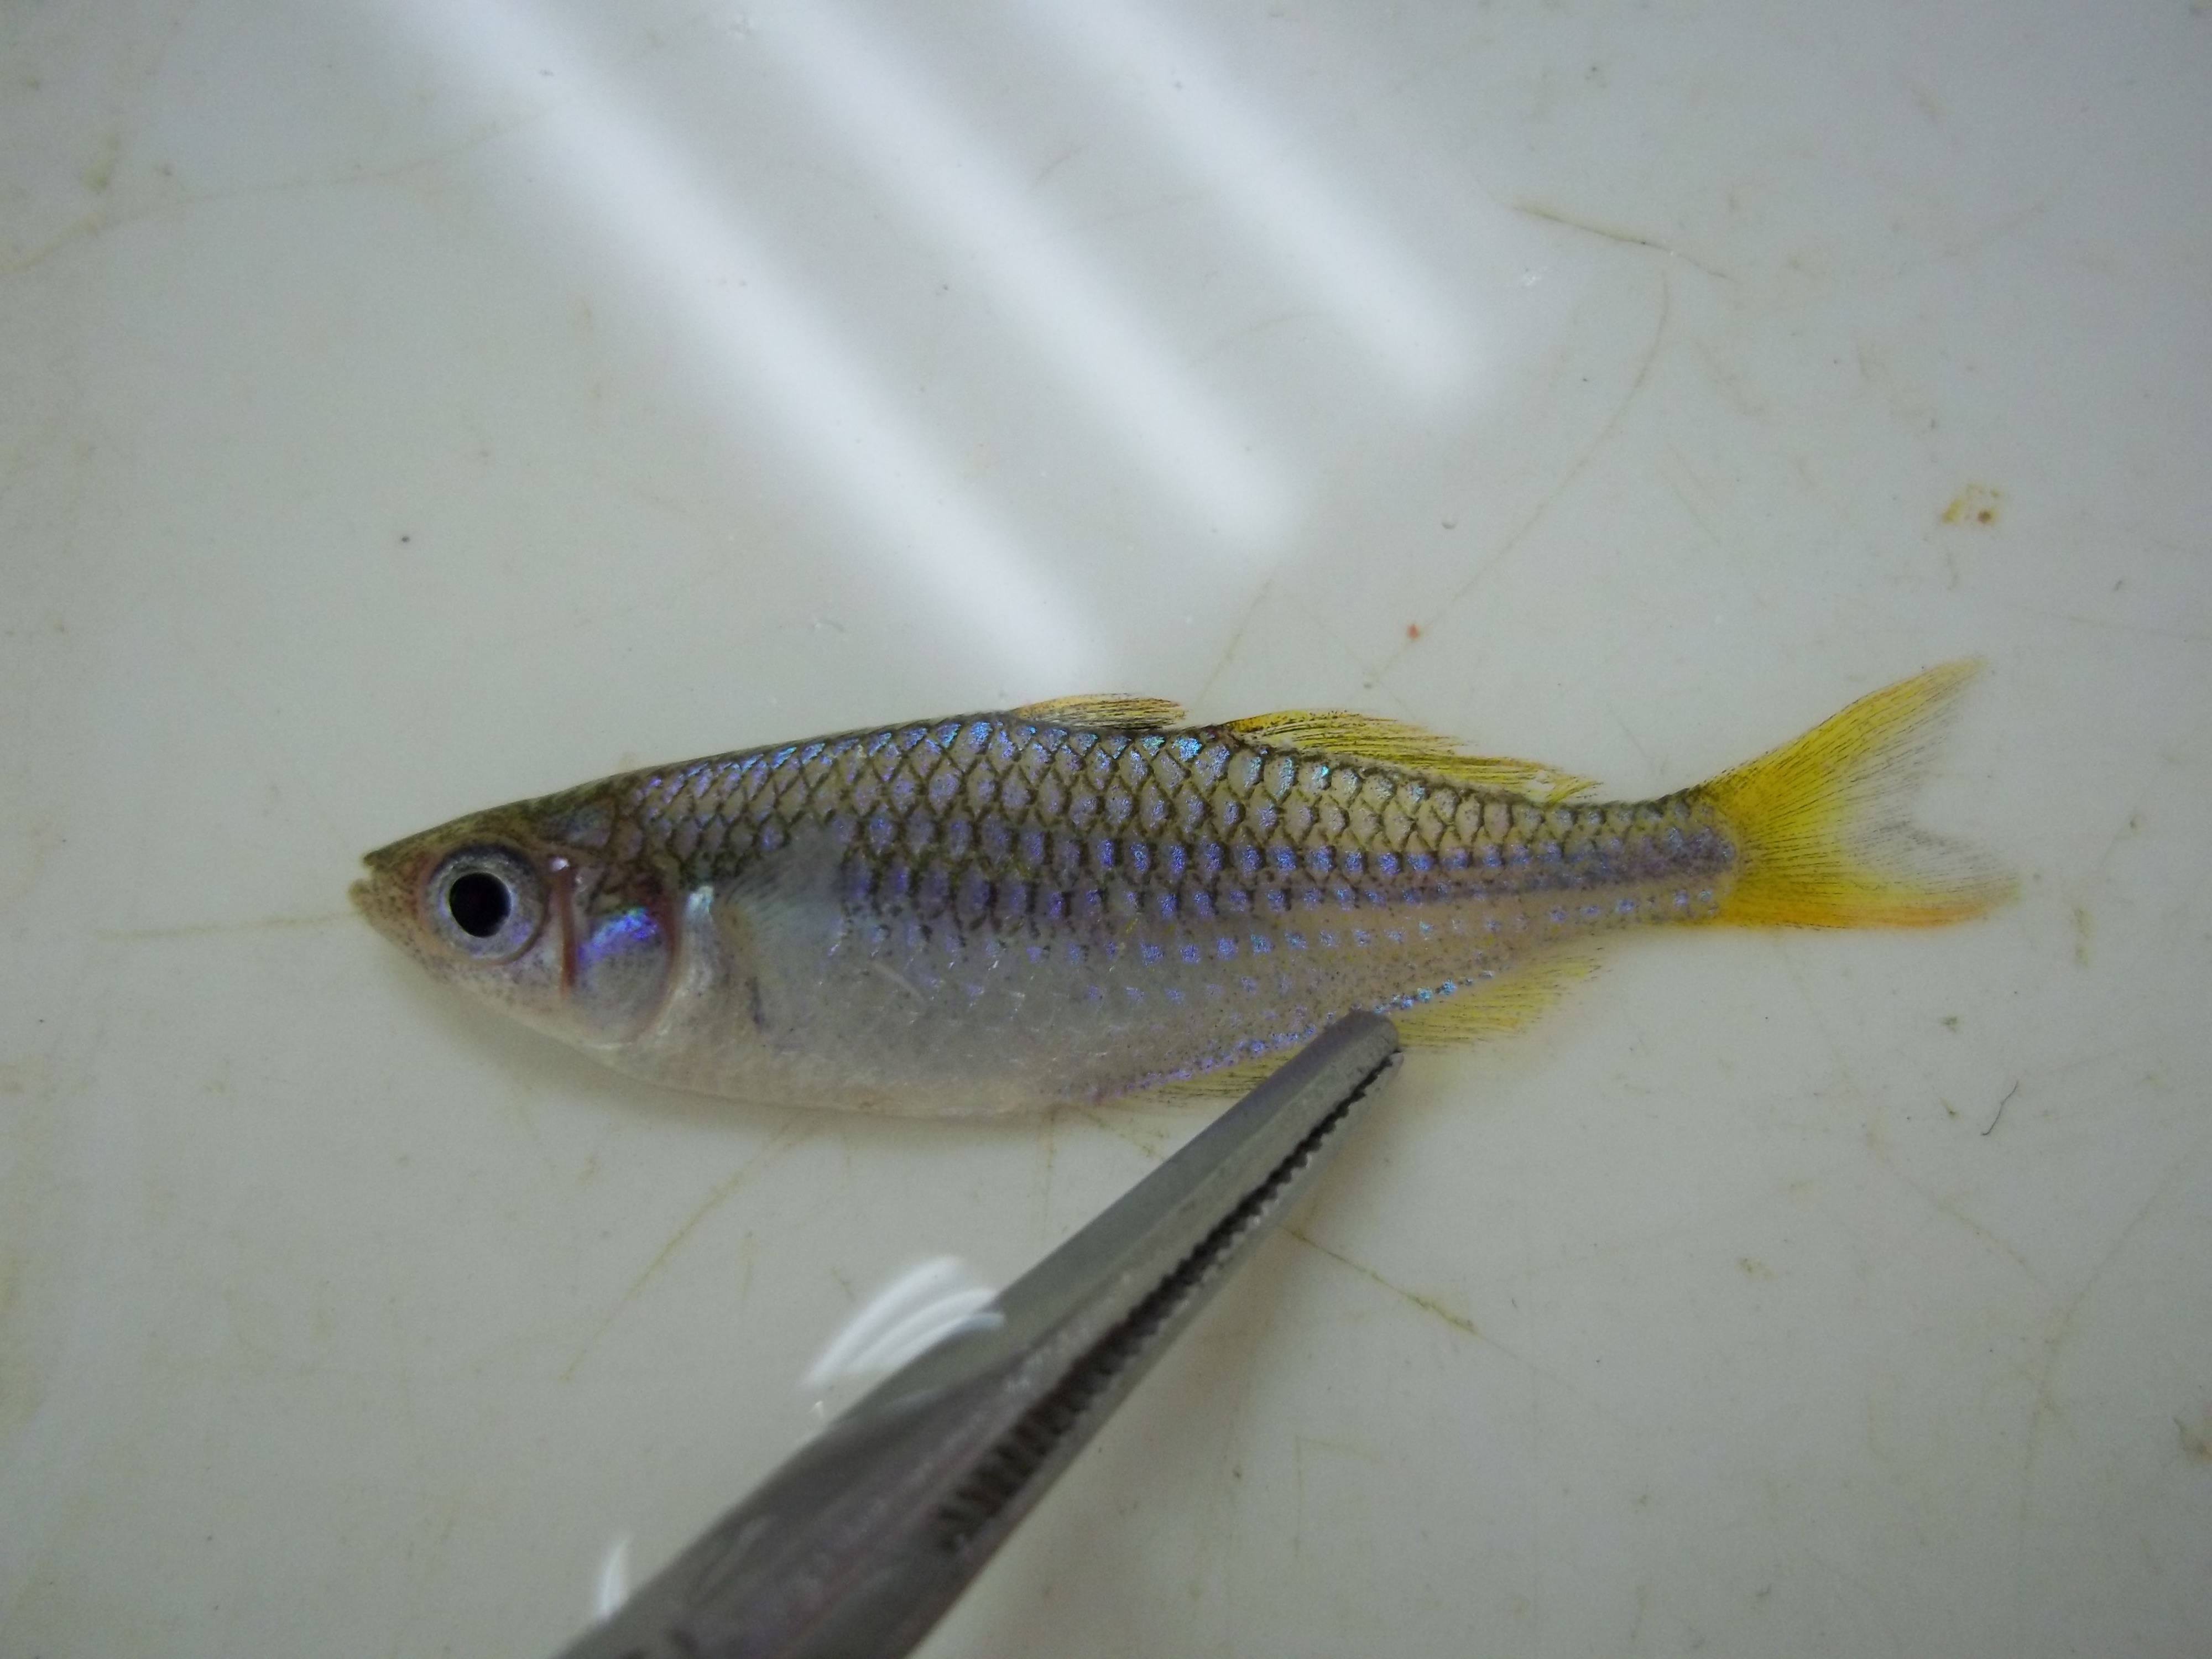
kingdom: Animalia
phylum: Chordata
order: Atheriniformes
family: Melanotaeniidae
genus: Melanotaenia
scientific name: Melanotaenia praecox
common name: Dwarf rainbowfish
